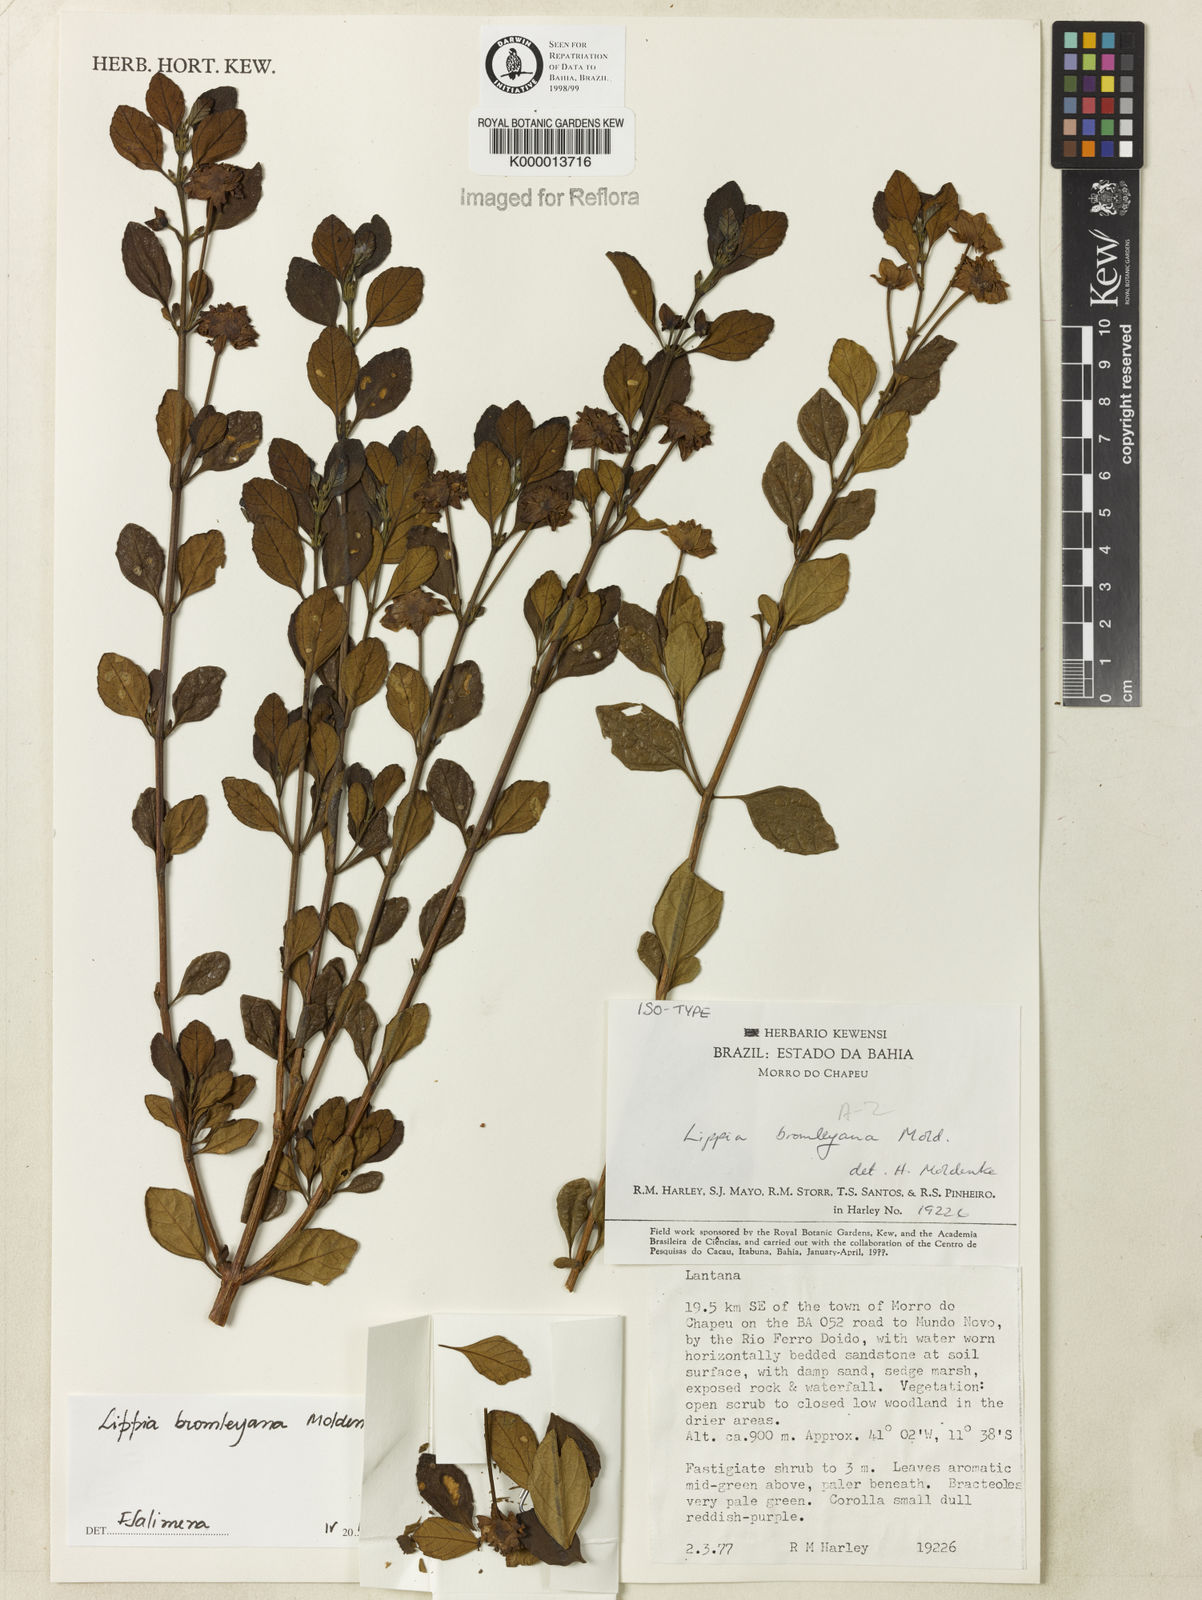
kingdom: Plantae
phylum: Tracheophyta
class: Magnoliopsida
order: Lamiales
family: Verbenaceae
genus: Lippia
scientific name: Lippia bromleyana
